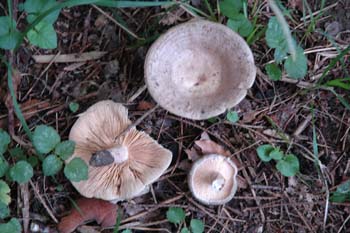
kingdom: Fungi
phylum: Basidiomycota
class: Agaricomycetes
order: Russulales
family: Russulaceae
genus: Lactarius
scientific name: Lactarius circellatus
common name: avnbøg-mælkehat
